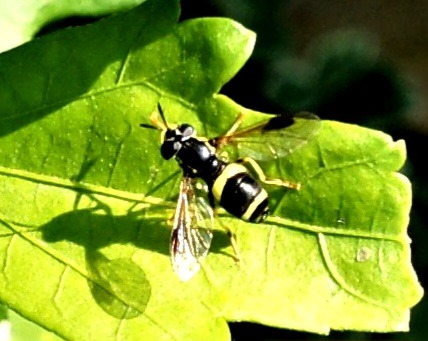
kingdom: Animalia
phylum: Arthropoda
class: Insecta
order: Diptera
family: Syrphidae
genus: Chrysotoxum
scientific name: Chrysotoxum bicincta
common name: Tobåndet hvepsesvirreflue
